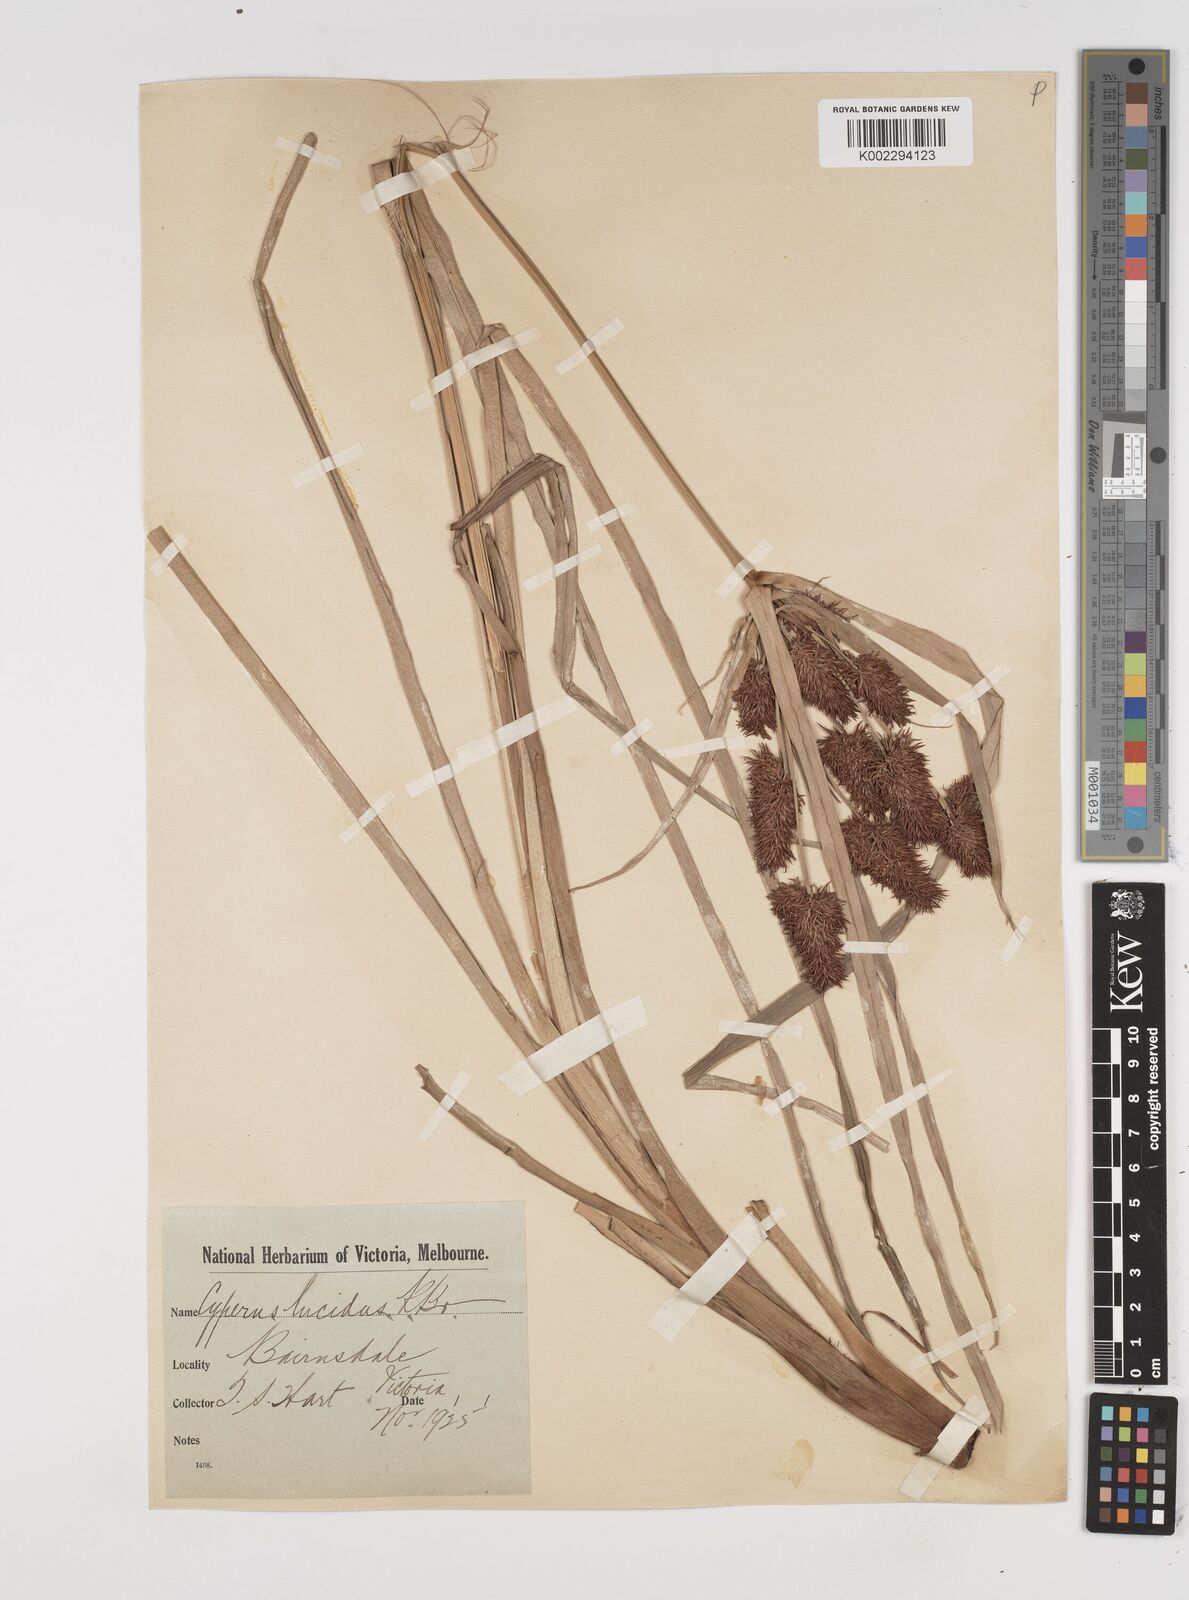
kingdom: Plantae
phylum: Tracheophyta
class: Liliopsida
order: Poales
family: Cyperaceae
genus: Cyperus
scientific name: Cyperus lucidus
